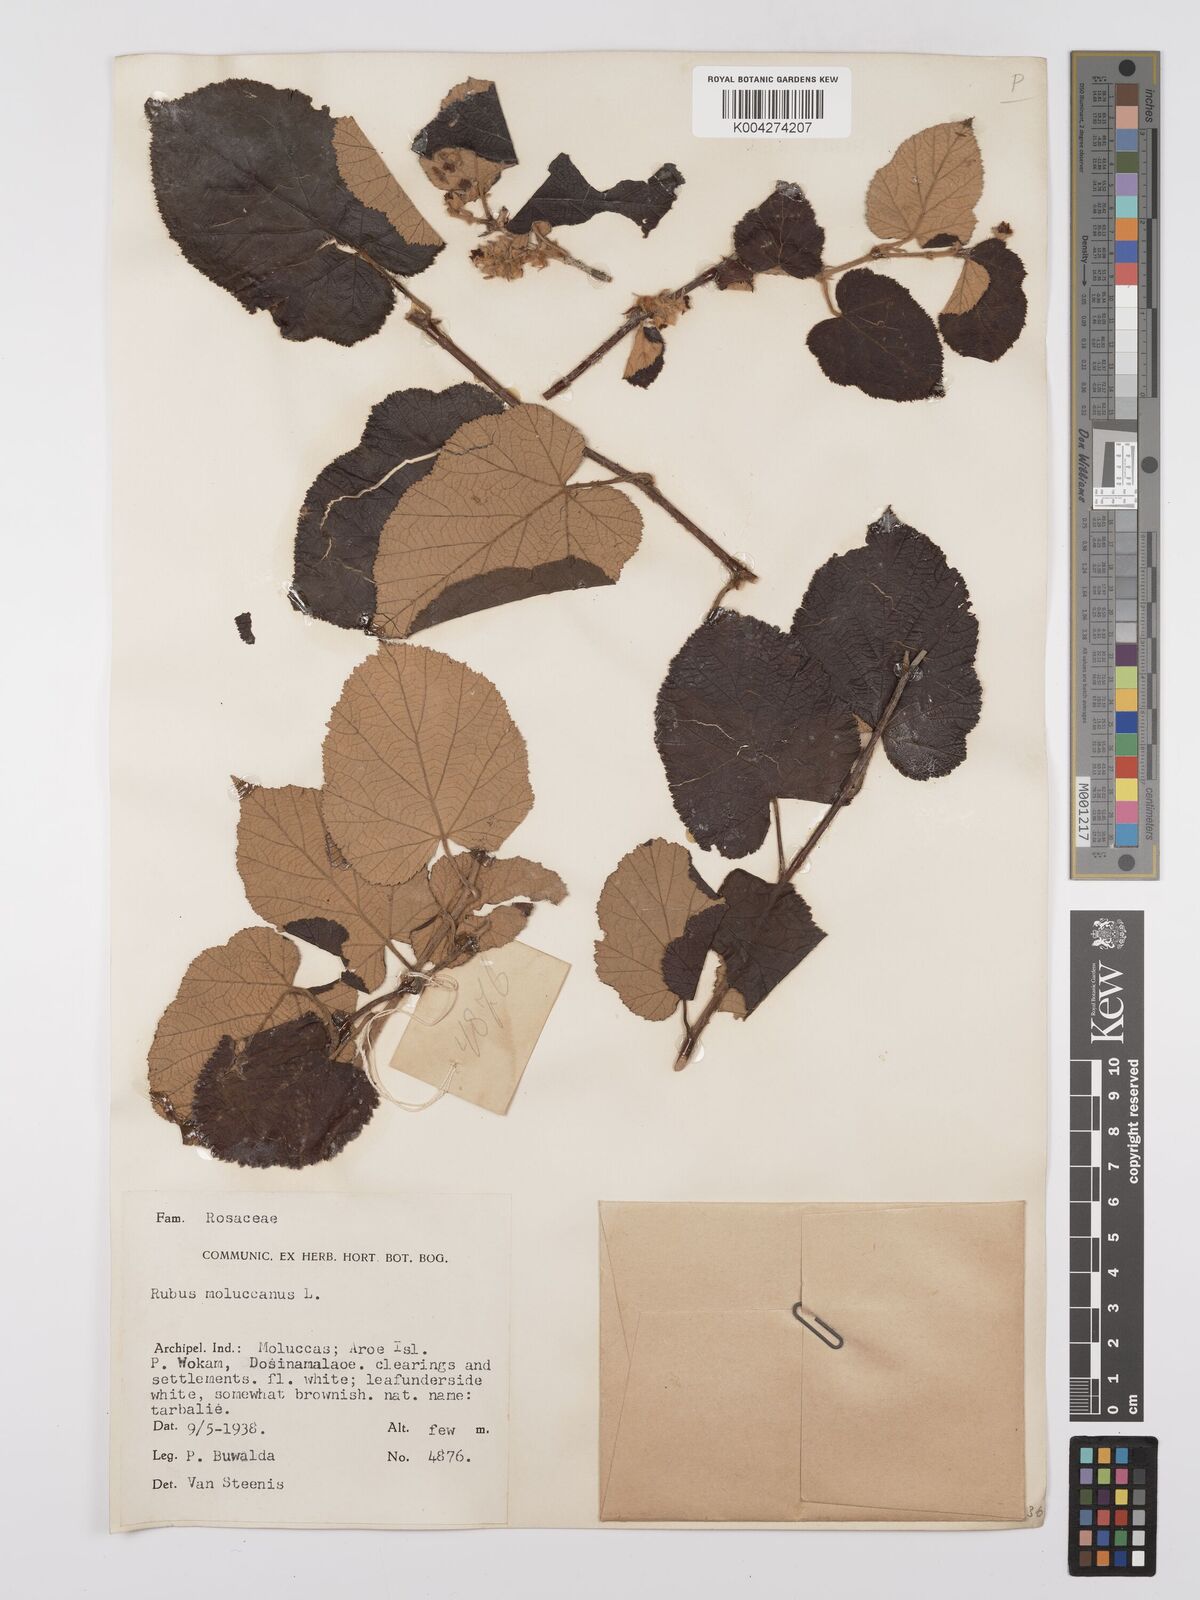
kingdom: Plantae
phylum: Tracheophyta
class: Magnoliopsida
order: Rosales
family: Rosaceae
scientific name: Rosaceae
